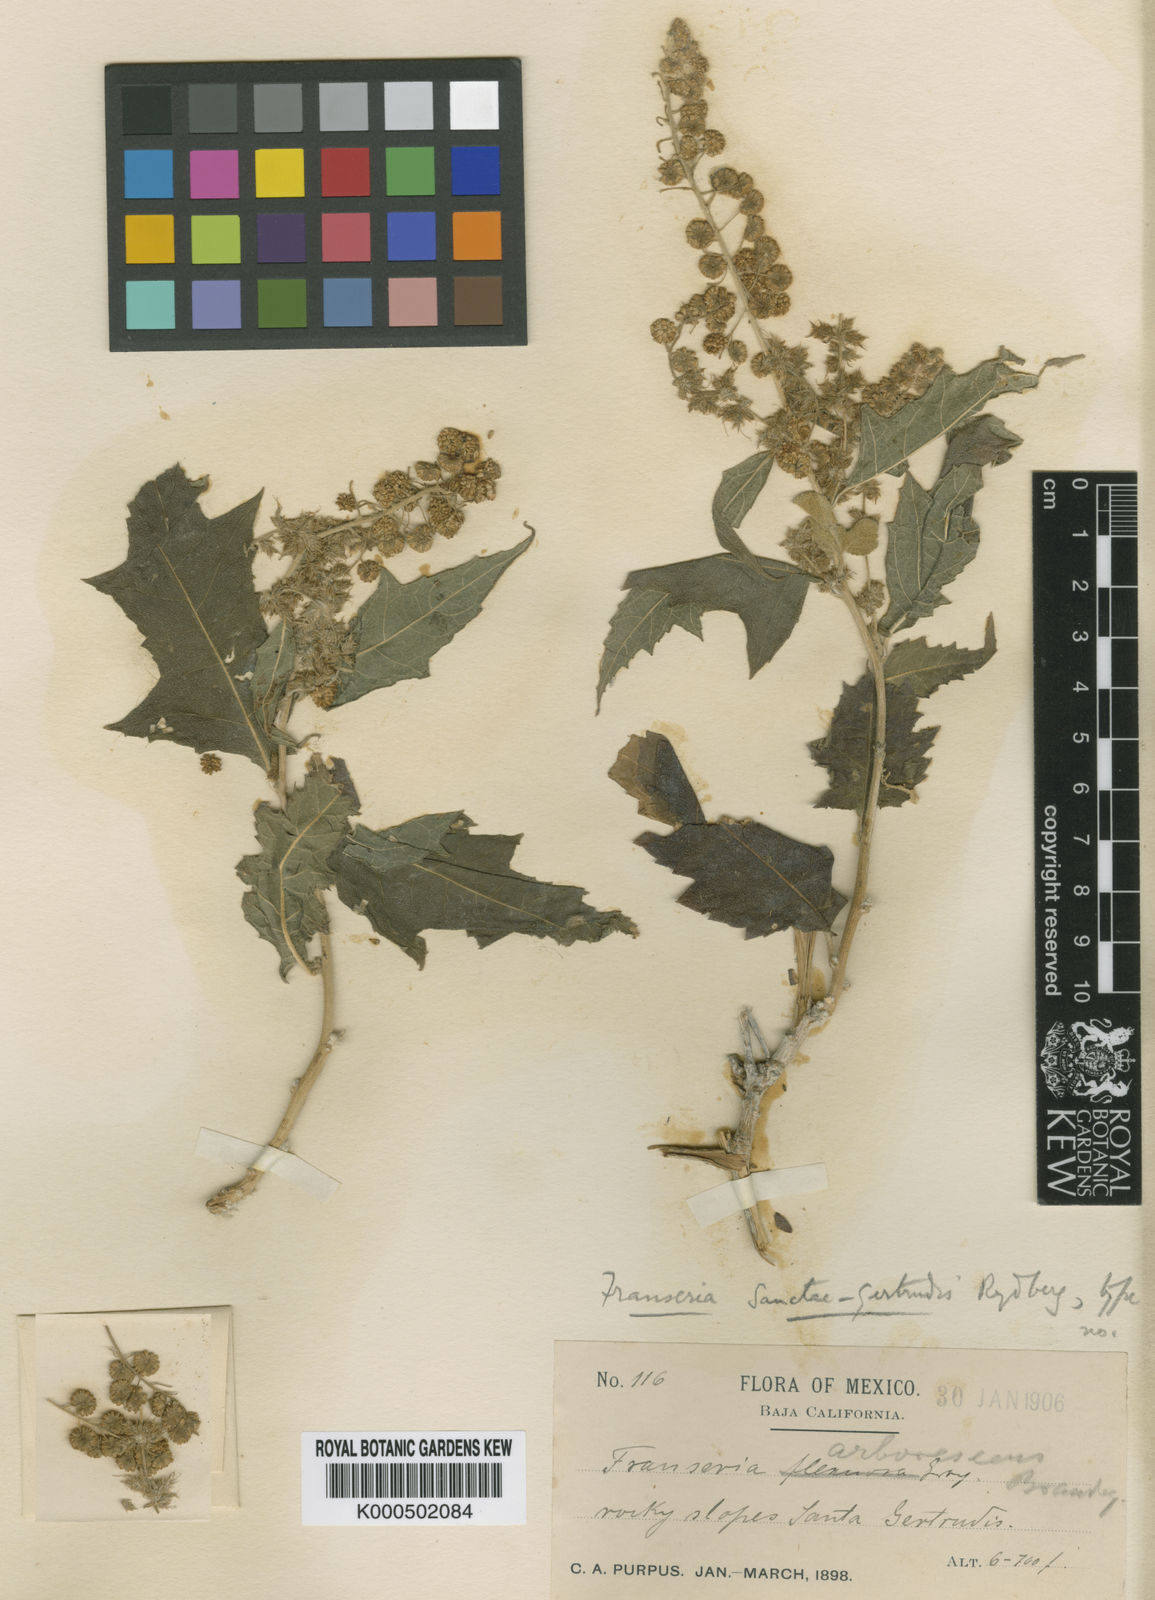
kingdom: Plantae
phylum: Tracheophyta
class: Magnoliopsida
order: Asterales
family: Asteraceae
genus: Ambrosia
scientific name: Ambrosia
